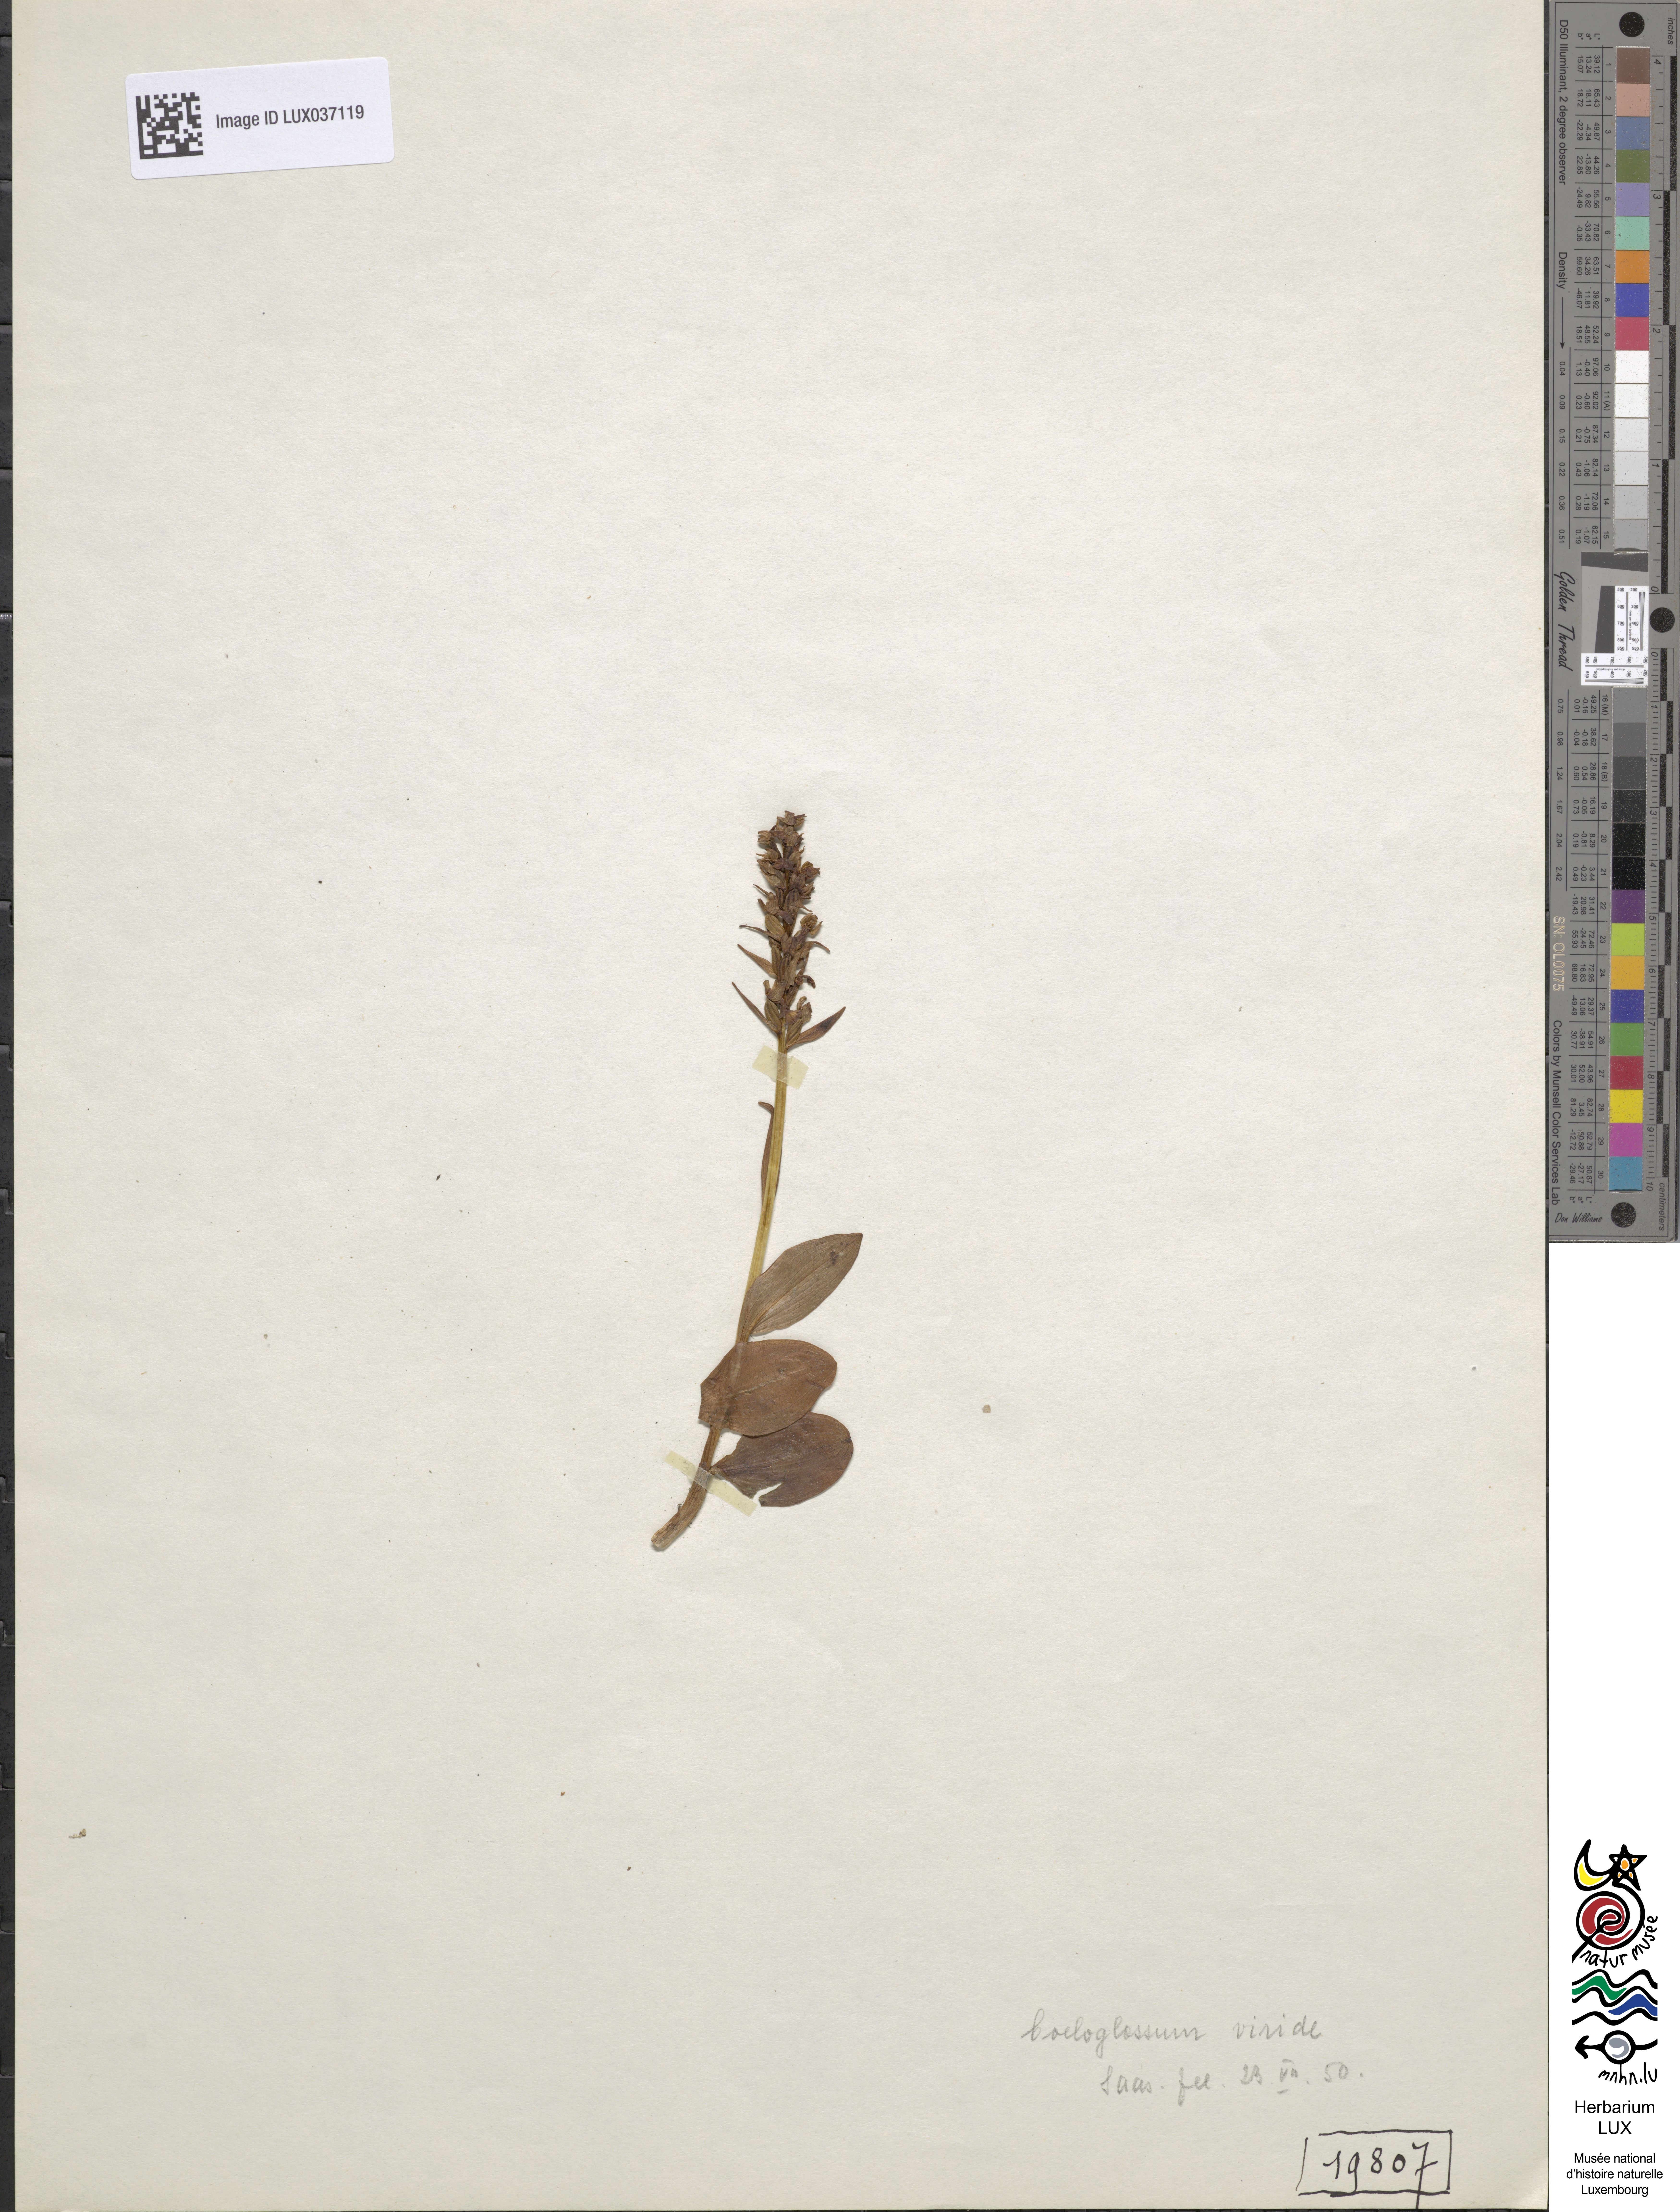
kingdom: Plantae
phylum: Tracheophyta
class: Liliopsida
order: Asparagales
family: Orchidaceae
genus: Dactylorhiza
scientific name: Dactylorhiza viridis
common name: Longbract frog orchid
